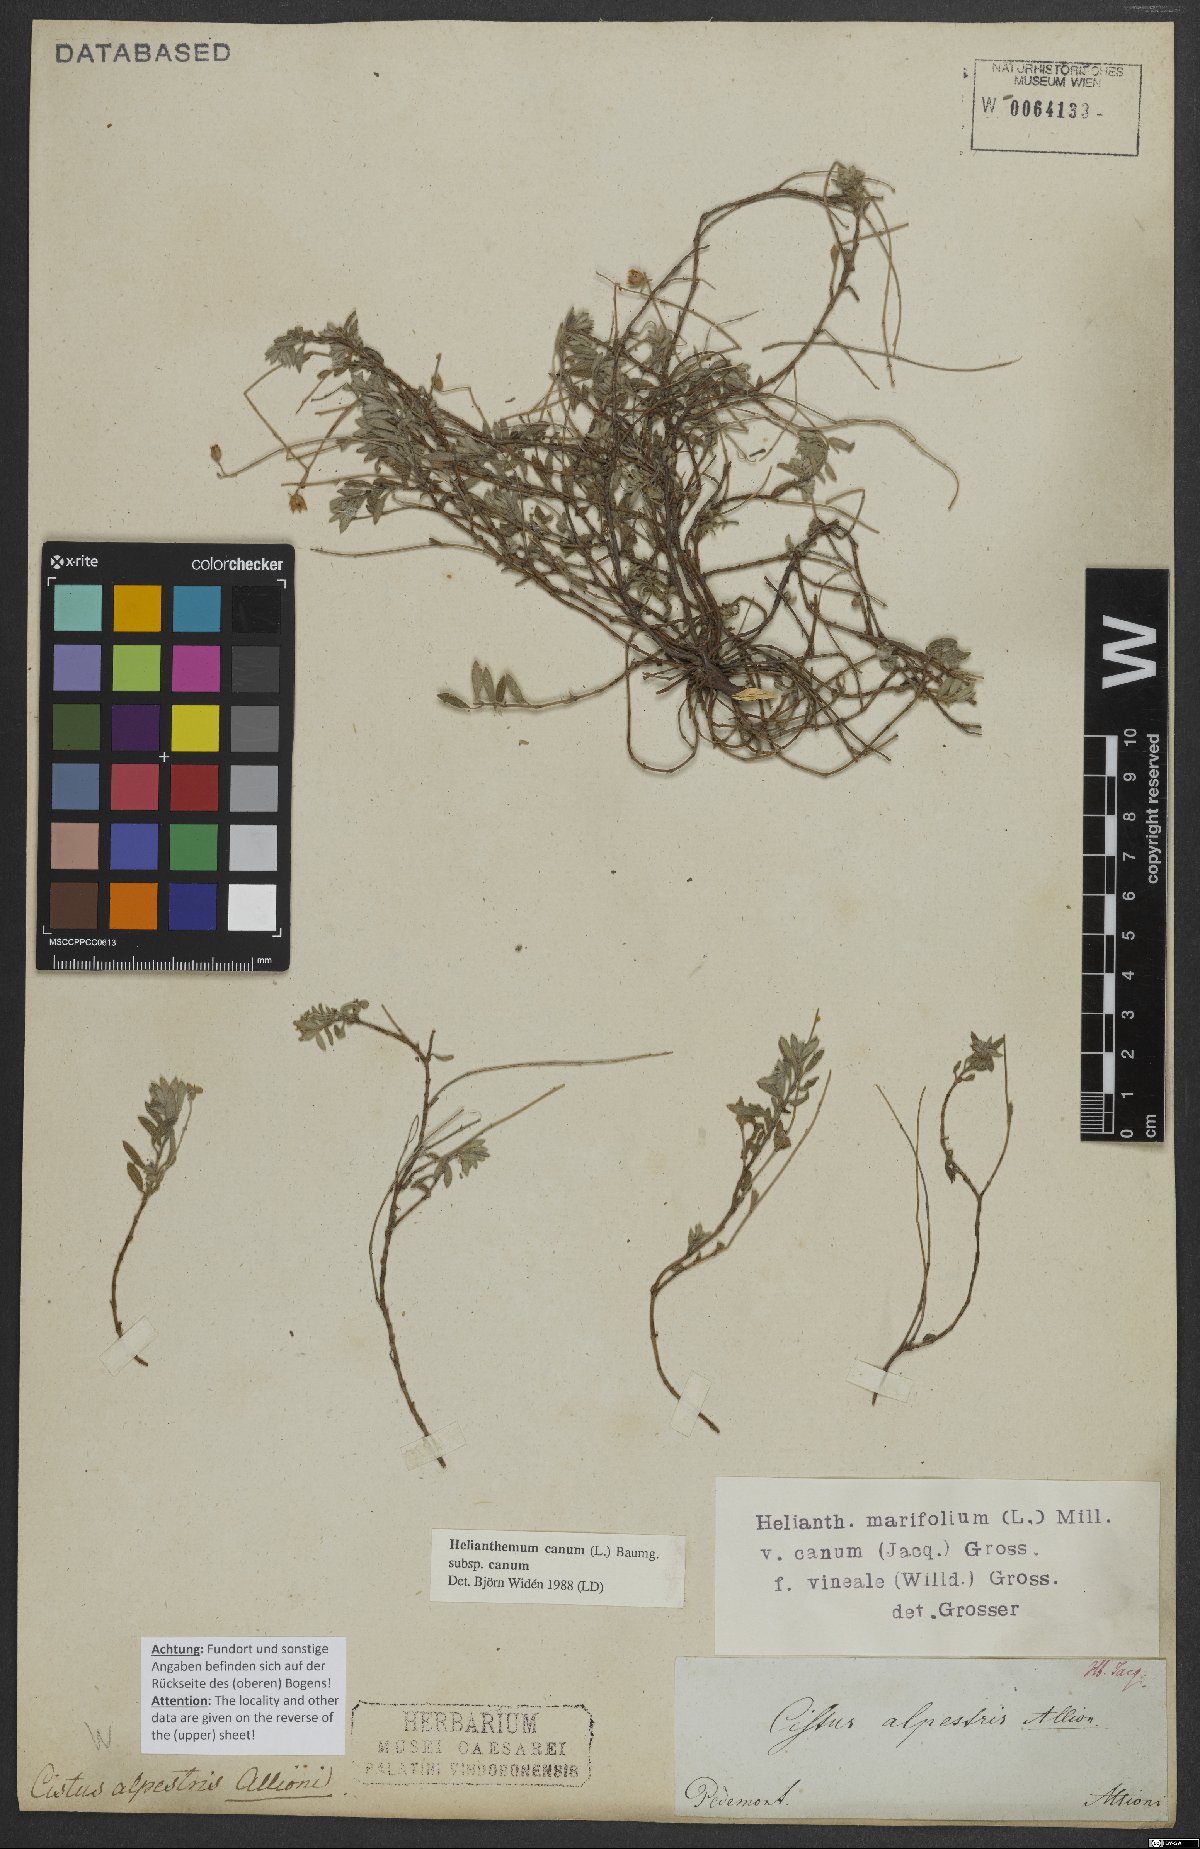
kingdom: Plantae
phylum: Tracheophyta
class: Magnoliopsida
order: Malvales
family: Cistaceae
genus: Helianthemum
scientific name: Helianthemum canum
